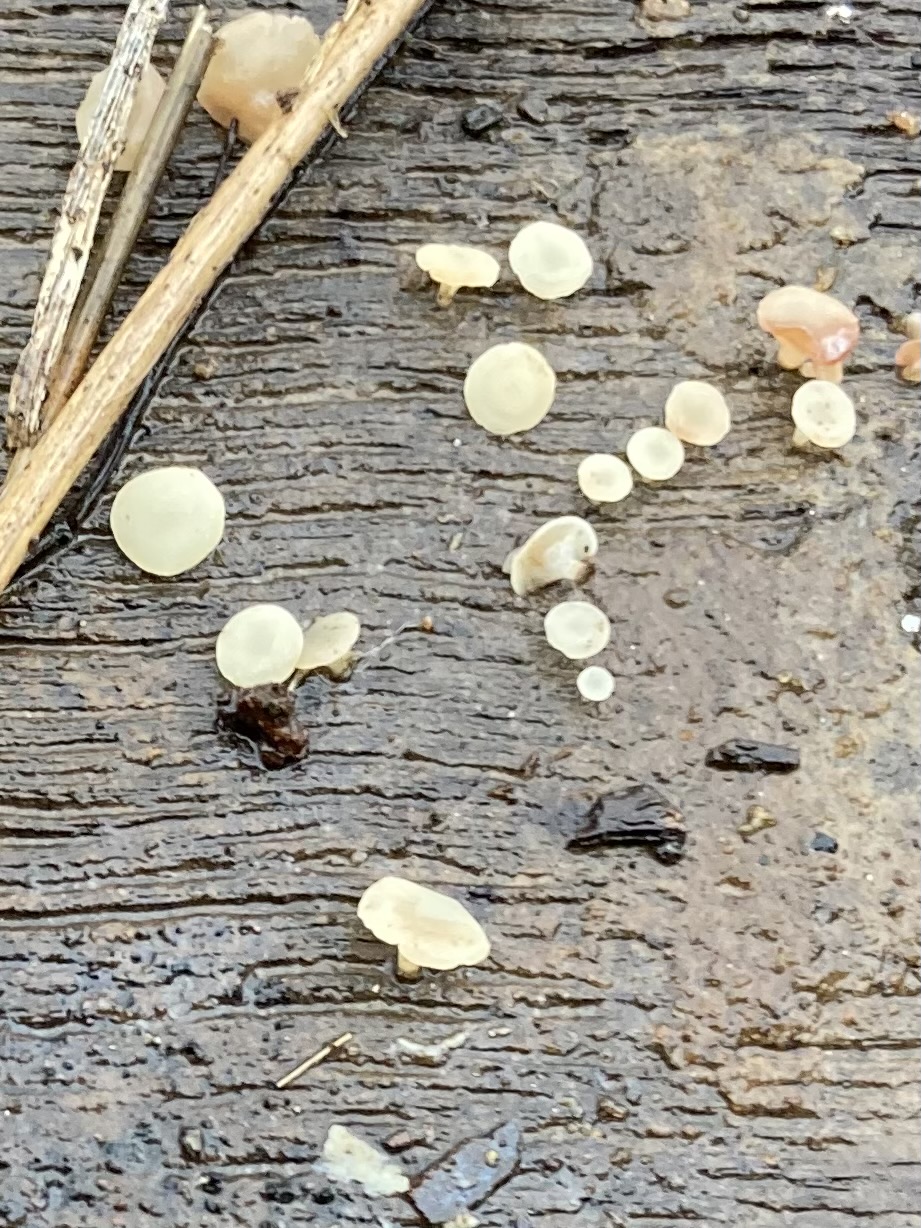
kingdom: Fungi
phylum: Ascomycota
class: Leotiomycetes
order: Helotiales
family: Helotiaceae
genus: Hymenoscyphus
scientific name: Hymenoscyphus
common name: stilkskive
